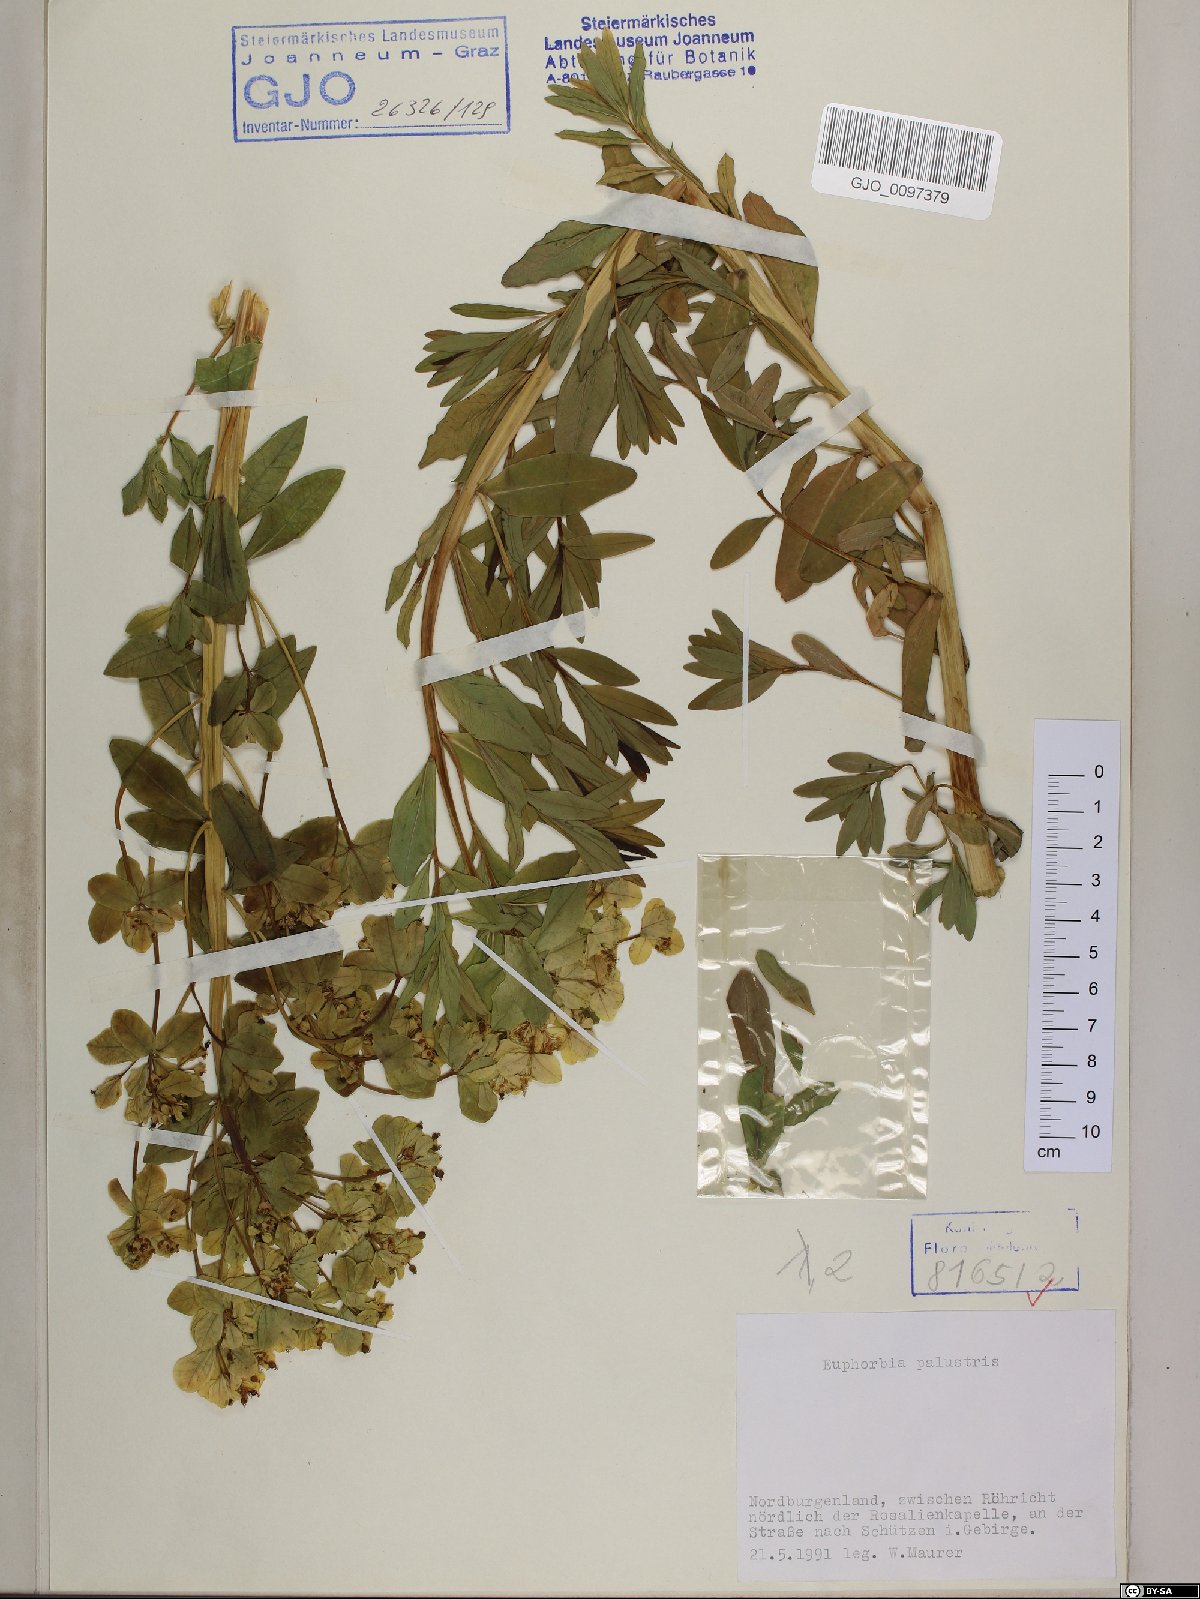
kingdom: Plantae
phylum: Tracheophyta
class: Magnoliopsida
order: Malpighiales
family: Euphorbiaceae
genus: Euphorbia
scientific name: Euphorbia palustris
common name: Marsh spurge
